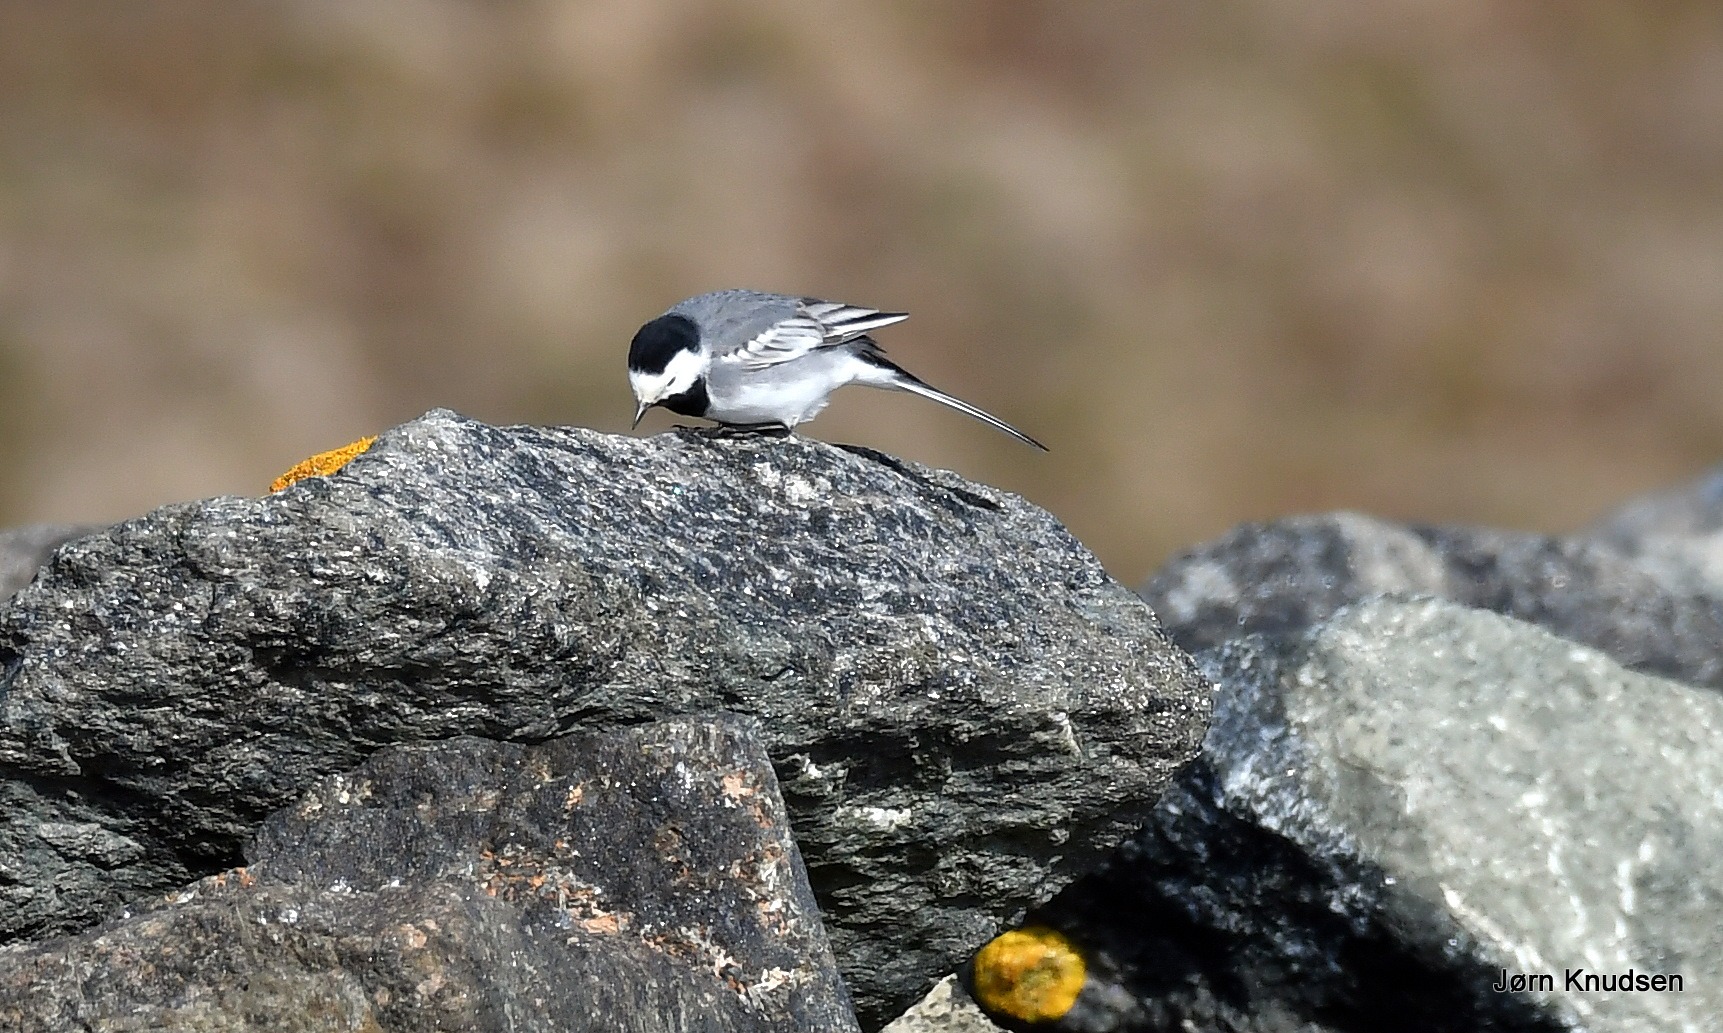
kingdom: Animalia
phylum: Chordata
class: Aves
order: Passeriformes
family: Motacillidae
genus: Motacilla
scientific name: Motacilla alba
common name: Hvid vipstjert
